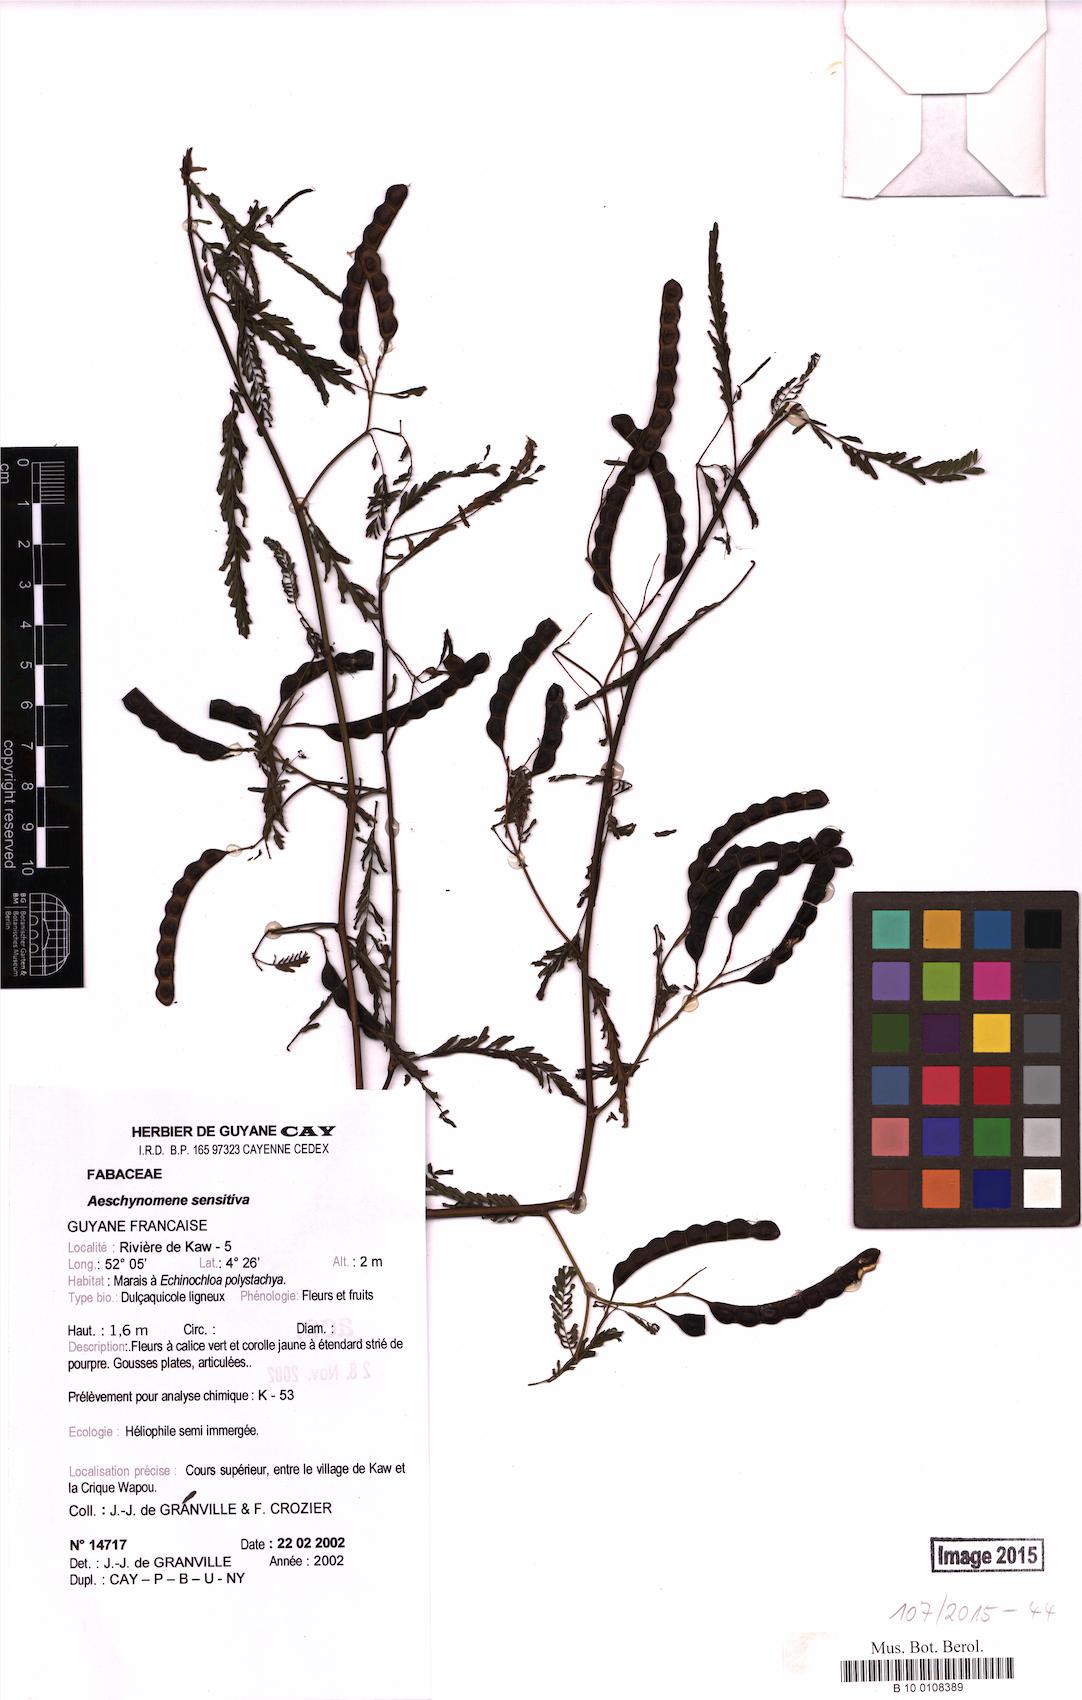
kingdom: Plantae
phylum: Tracheophyta
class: Magnoliopsida
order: Fabales
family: Fabaceae
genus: Aeschynomene
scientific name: Aeschynomene sensitiva
